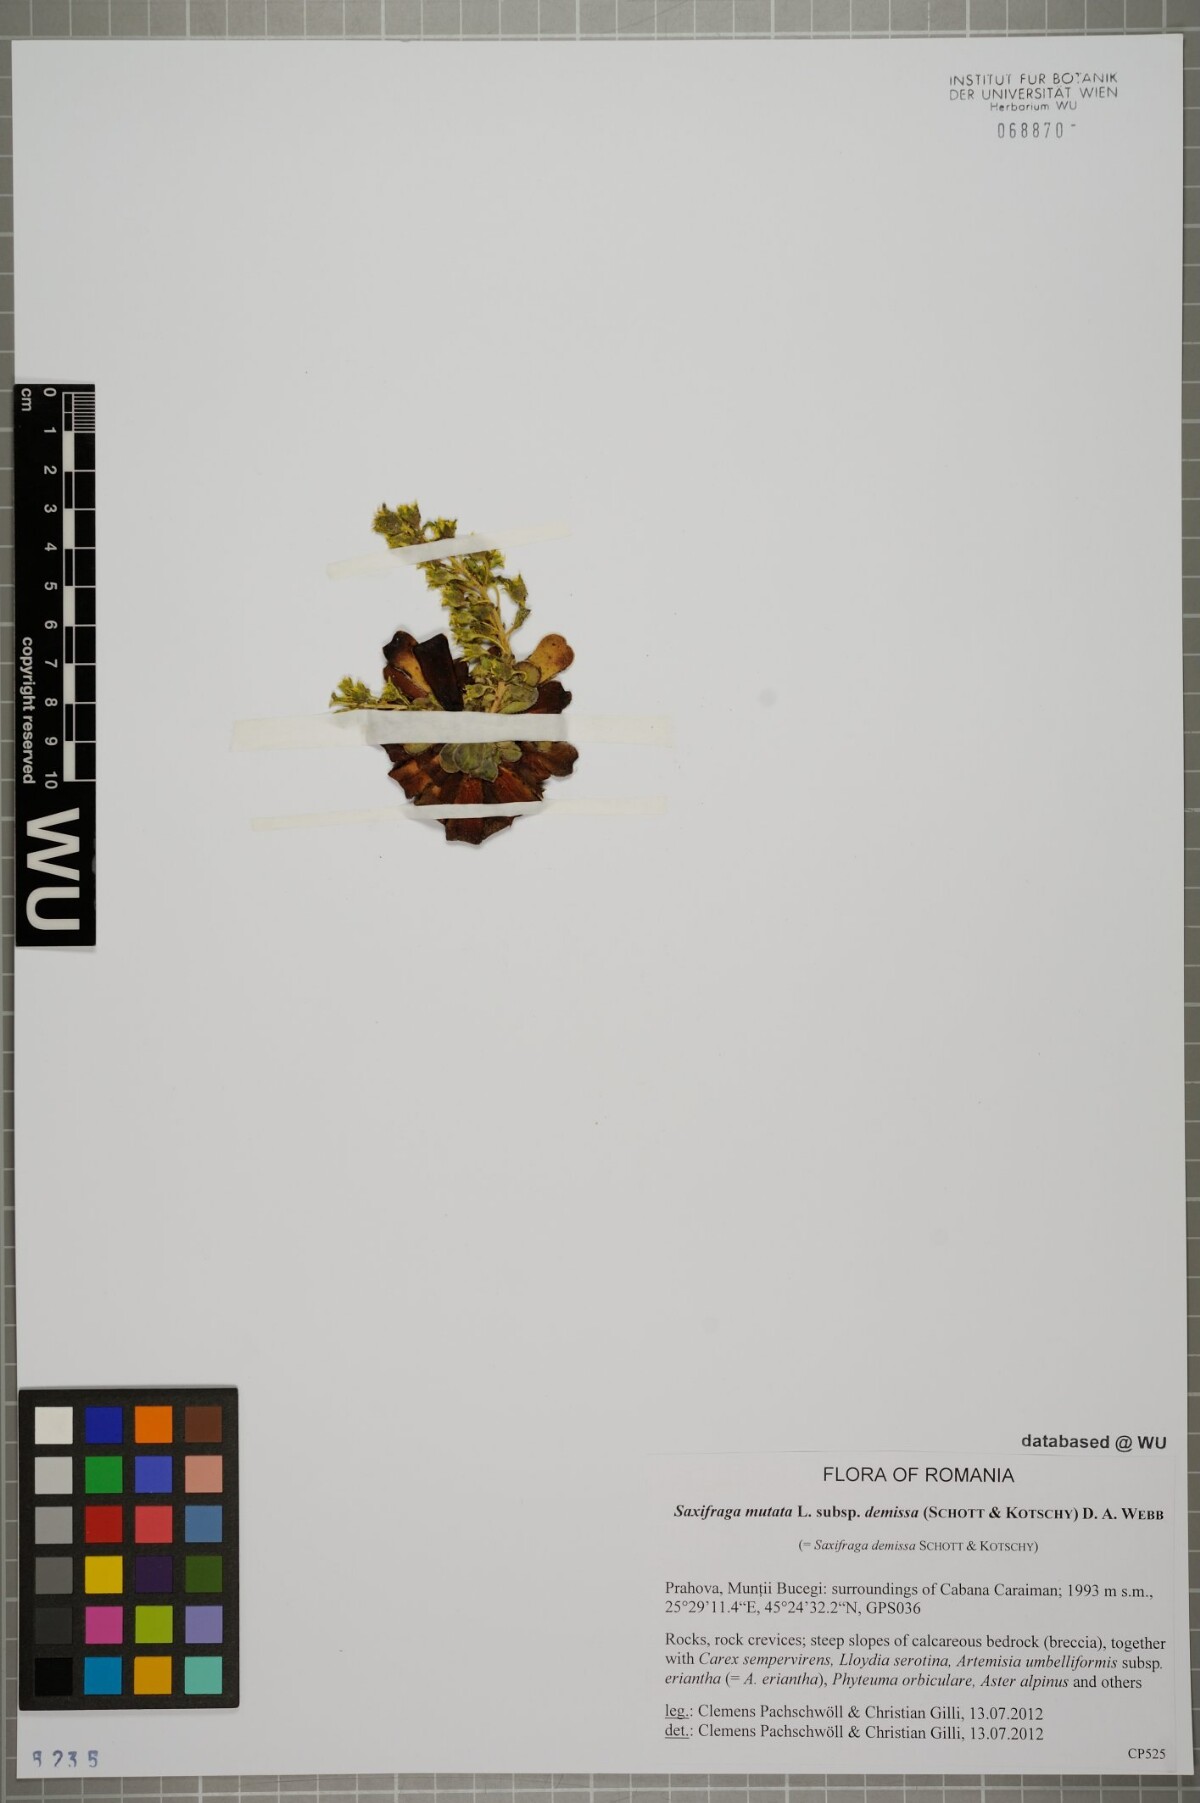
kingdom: Plantae
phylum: Tracheophyta
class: Magnoliopsida
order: Saxifragales
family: Saxifragaceae
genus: Saxifraga
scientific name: Saxifraga mutata
